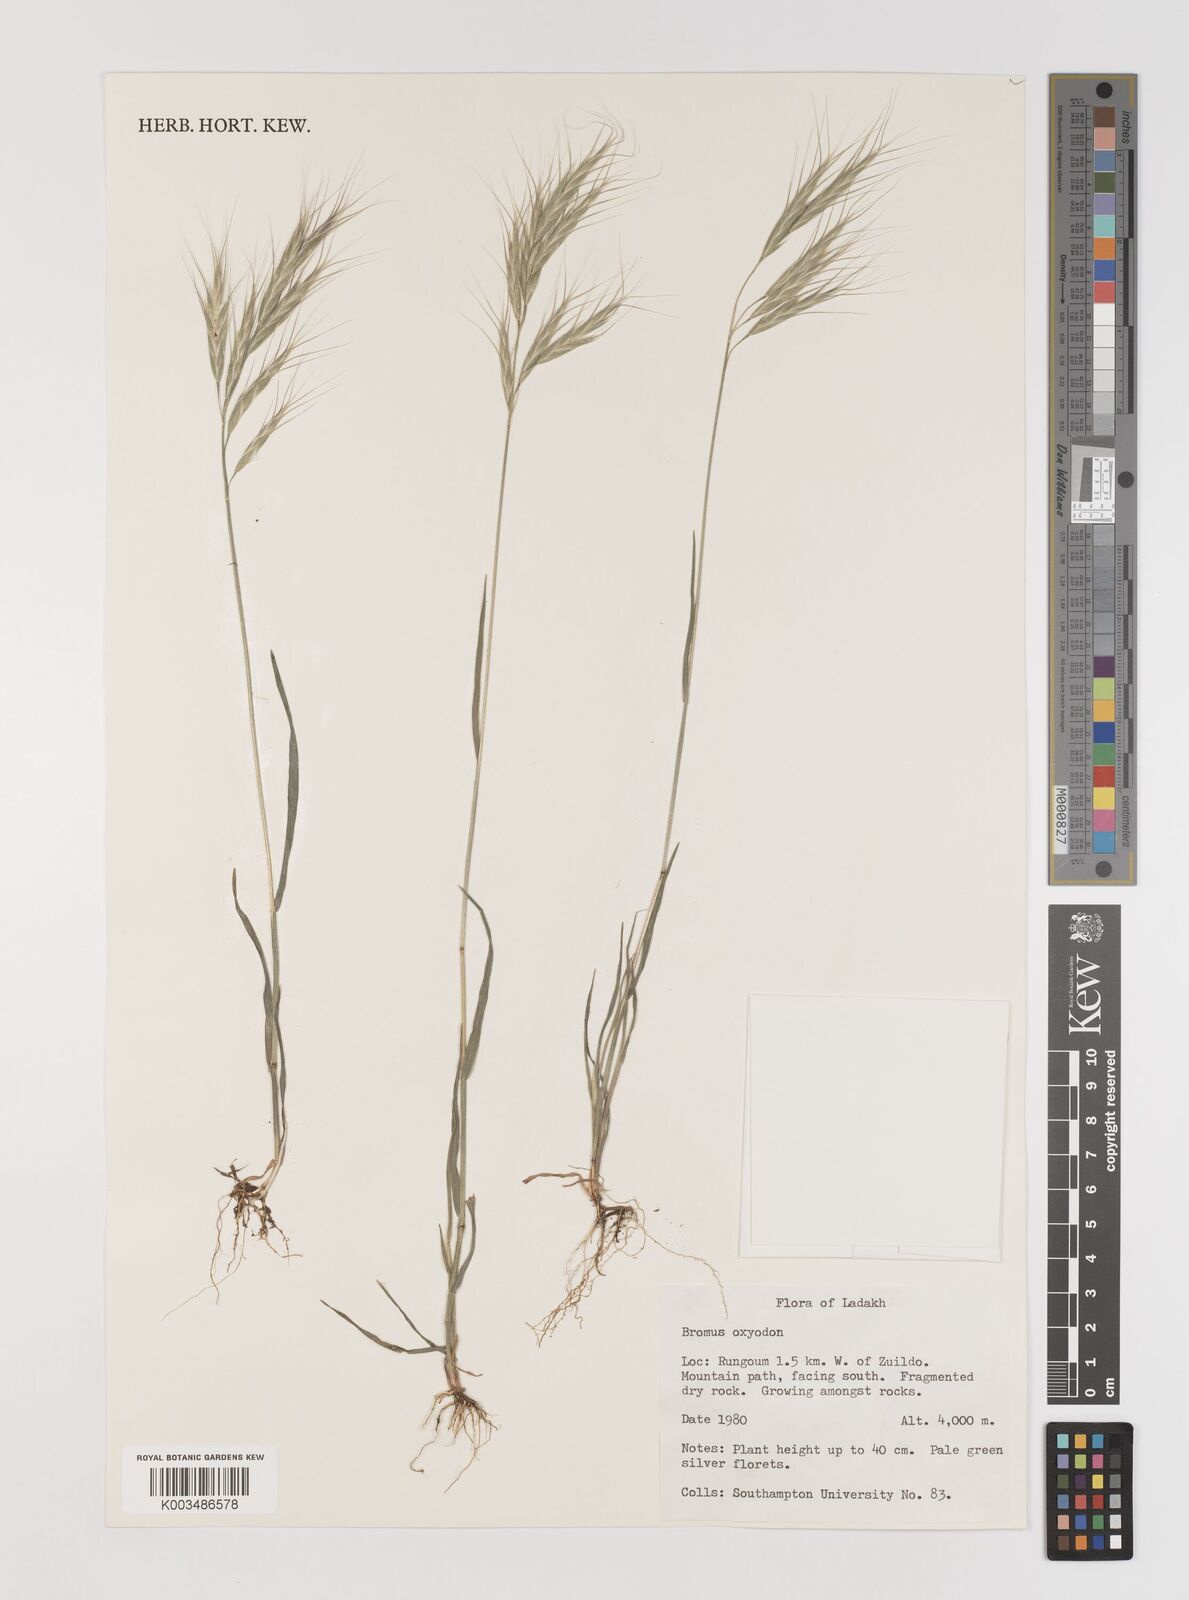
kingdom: Plantae
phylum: Tracheophyta
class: Liliopsida
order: Poales
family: Poaceae
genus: Bromus
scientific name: Bromus oxyodon
